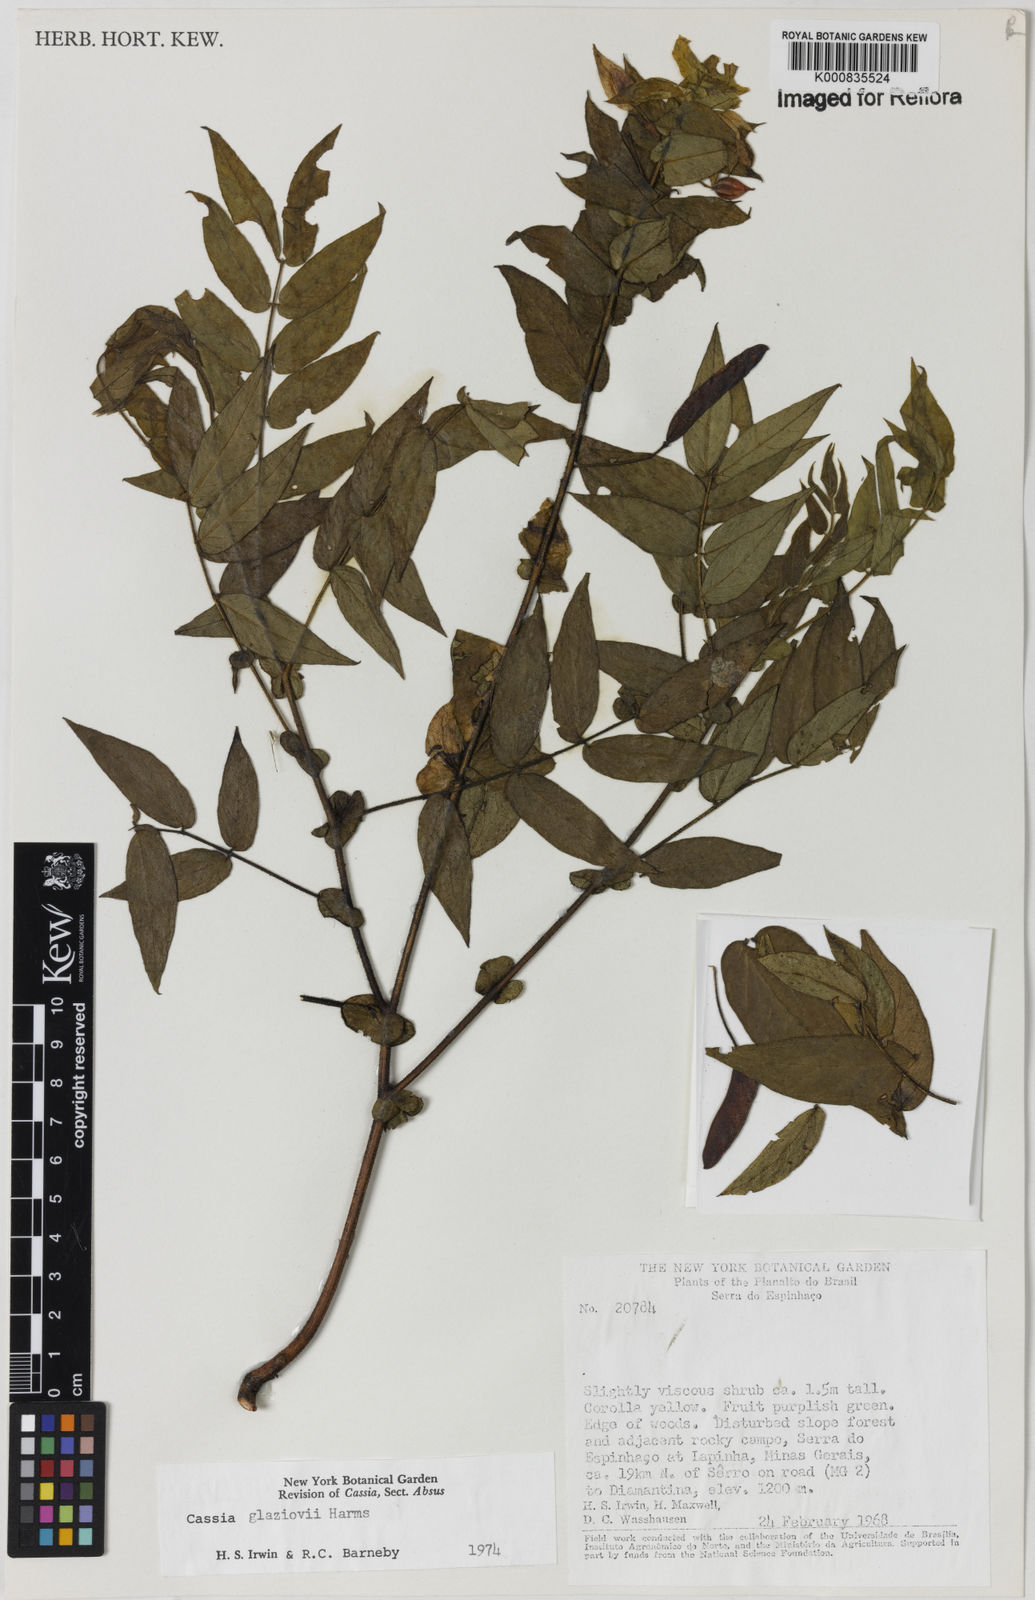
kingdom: Plantae
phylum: Tracheophyta
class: Magnoliopsida
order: Fabales
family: Fabaceae
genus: Chamaecrista
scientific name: Chamaecrista glaziovii
